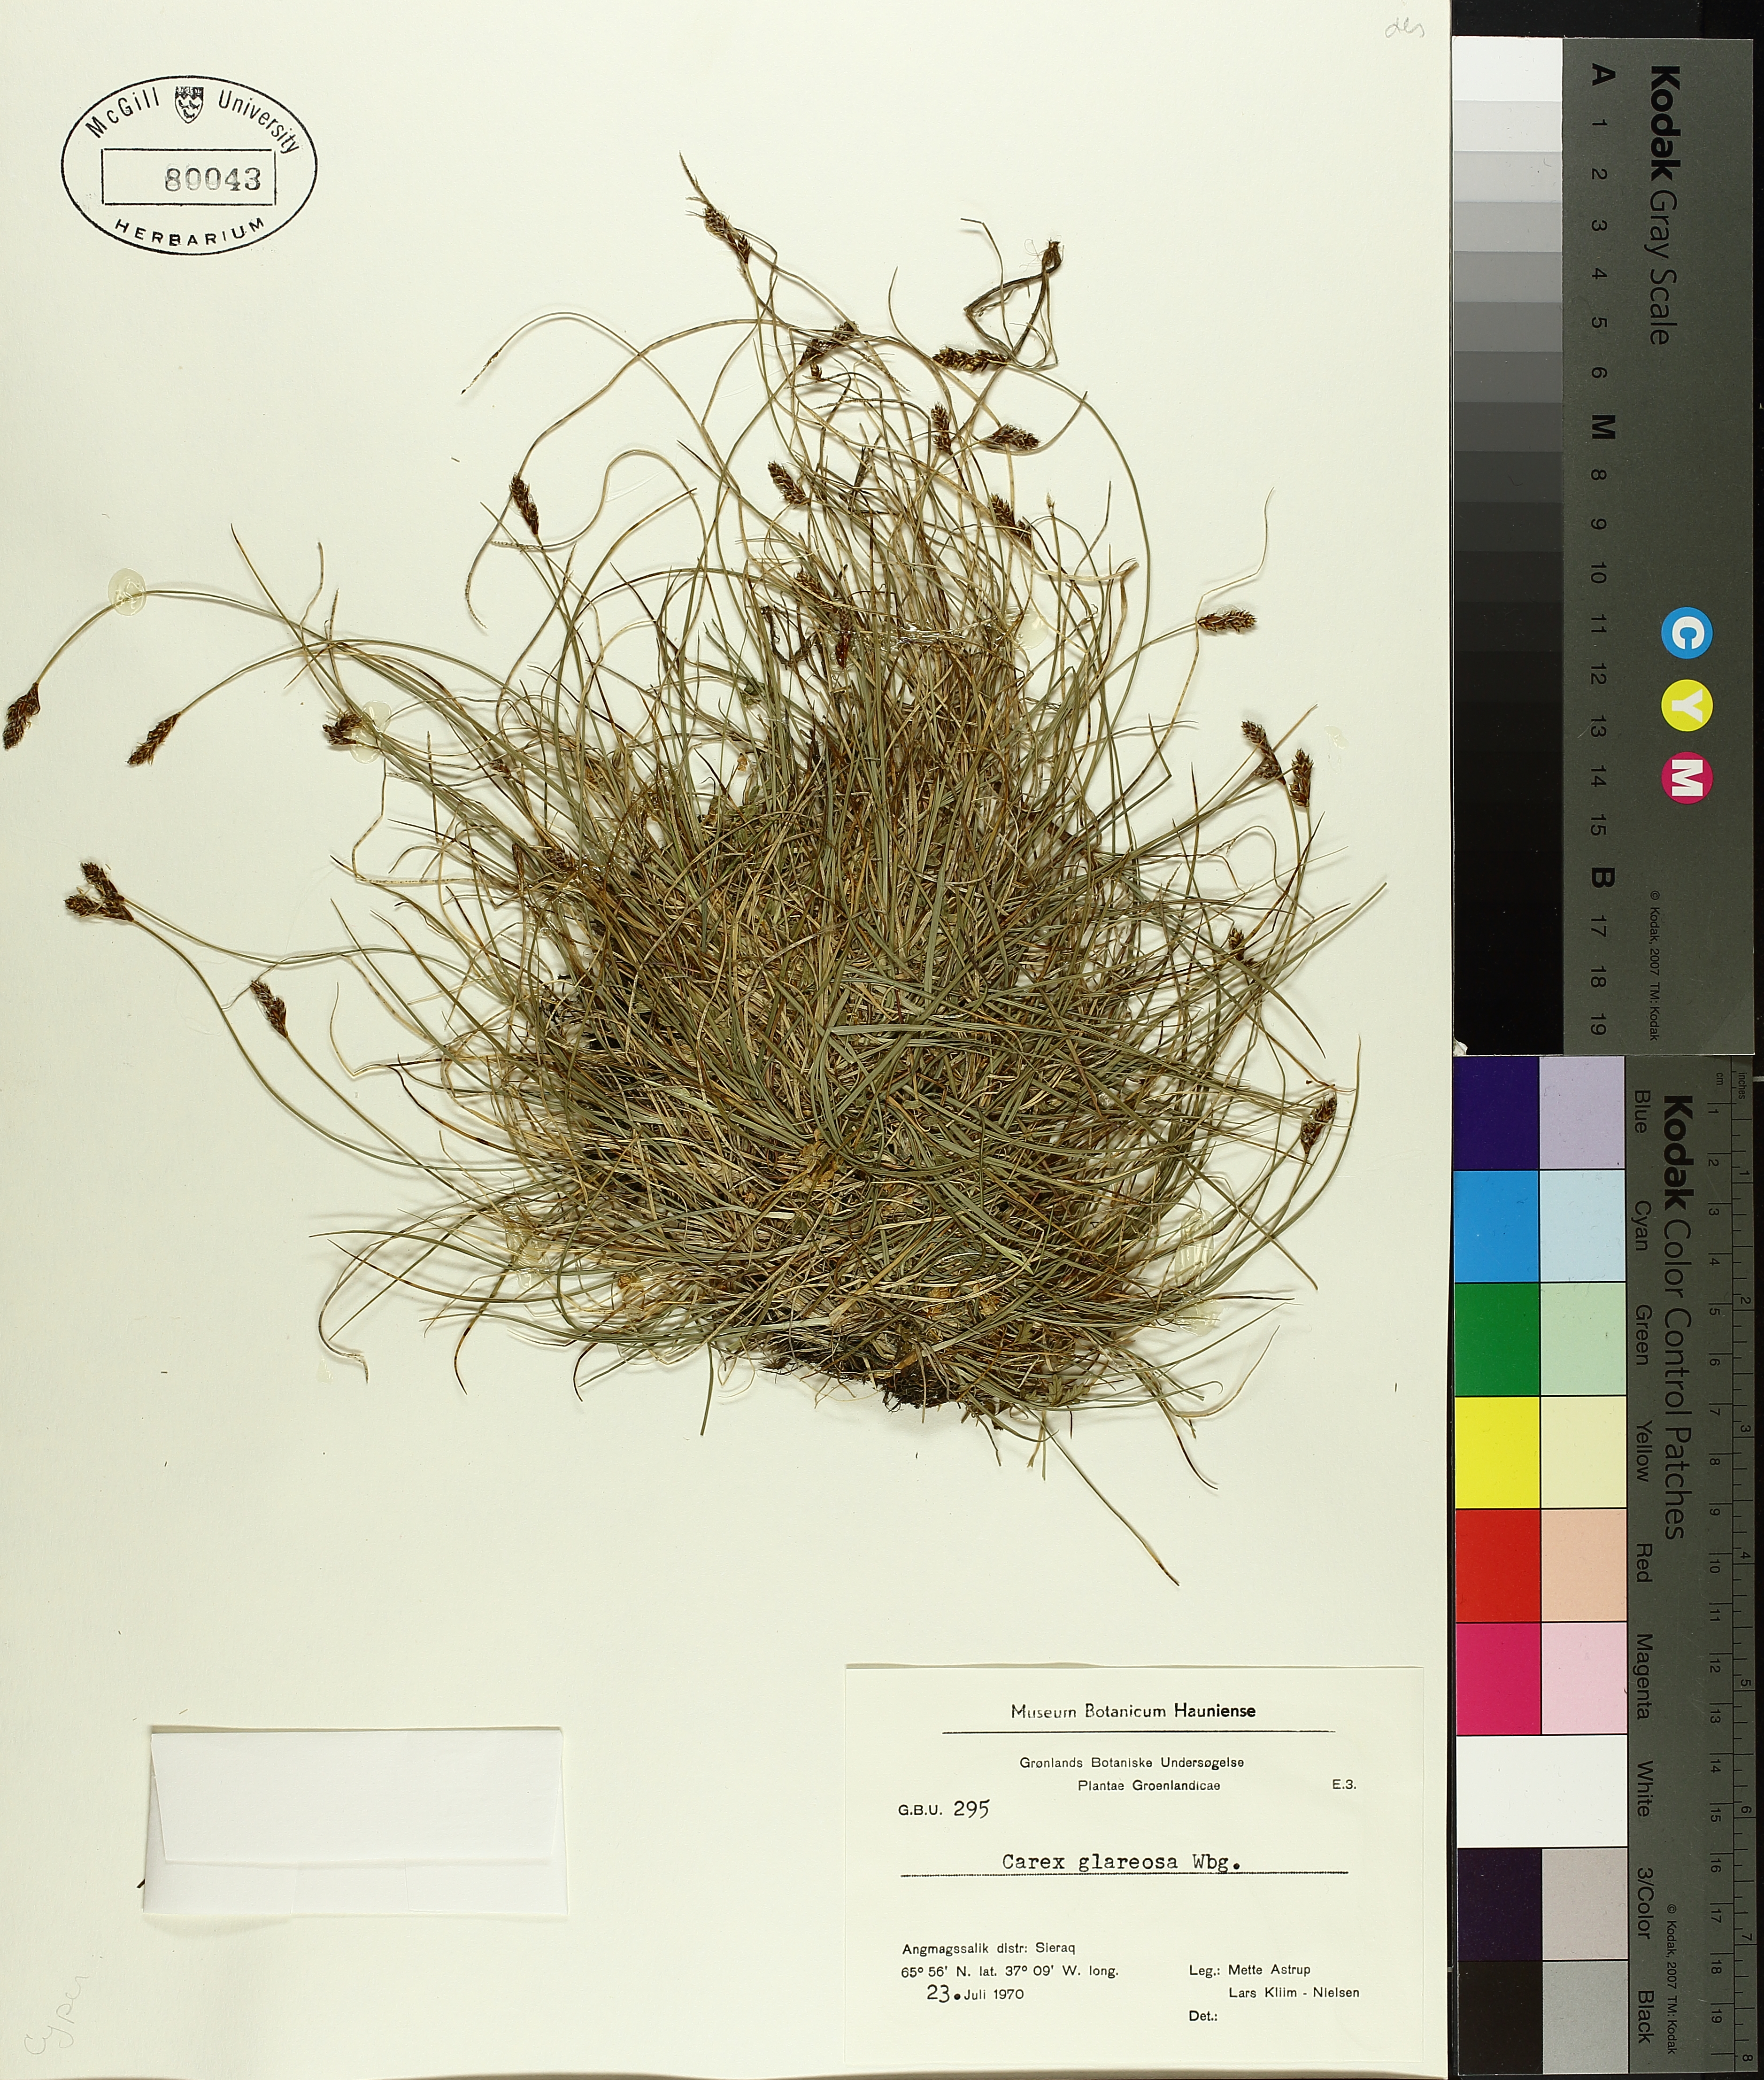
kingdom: Plantae
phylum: Tracheophyta
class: Liliopsida
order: Poales
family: Cyperaceae
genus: Carex
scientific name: Carex glareosa
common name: Clustered sedge
